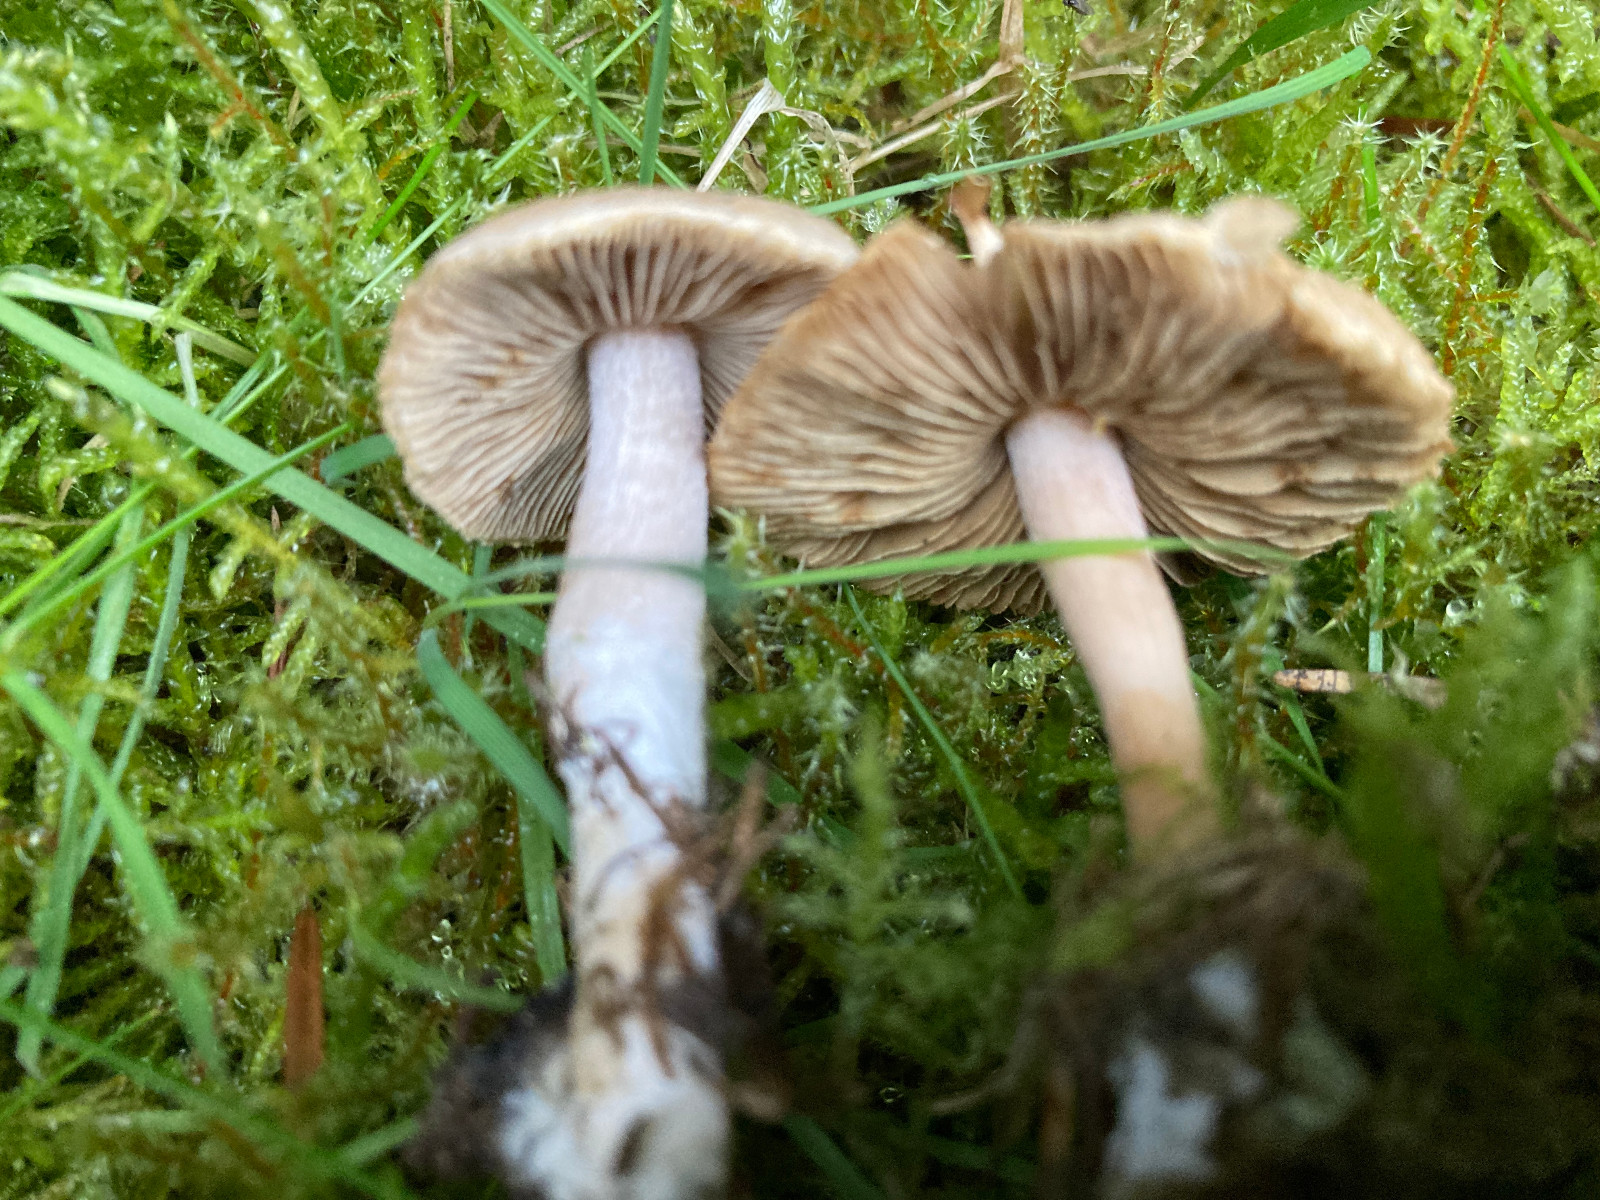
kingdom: Fungi
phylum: Basidiomycota
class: Agaricomycetes
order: Agaricales
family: Inocybaceae
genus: Inocybe
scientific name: Inocybe
